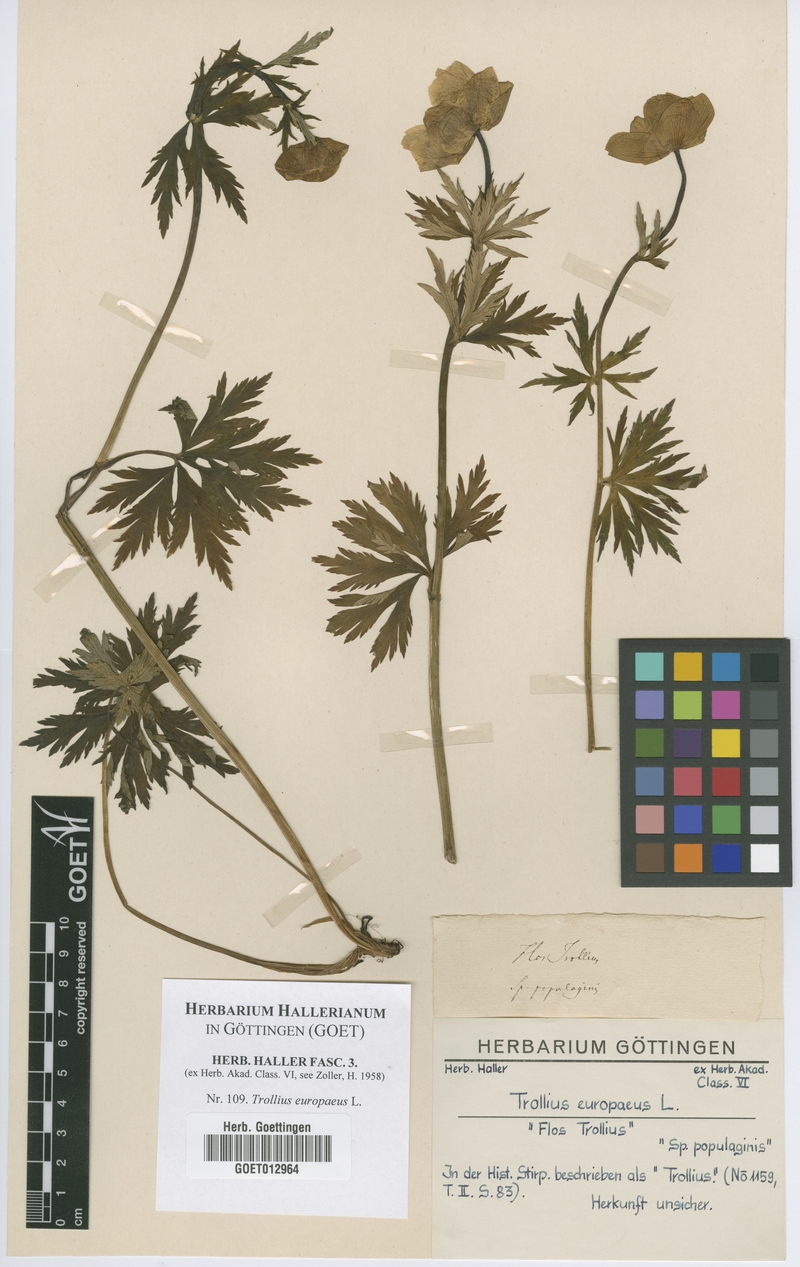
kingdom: Plantae
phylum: Tracheophyta
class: Magnoliopsida
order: Ranunculales
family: Ranunculaceae
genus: Trollius
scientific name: Trollius europaeus
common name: European globeflower
